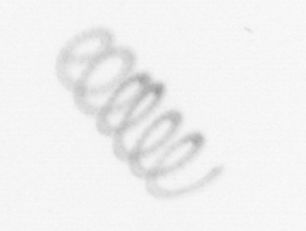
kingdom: Chromista
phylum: Ochrophyta
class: Bacillariophyceae
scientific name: Bacillariophyceae
